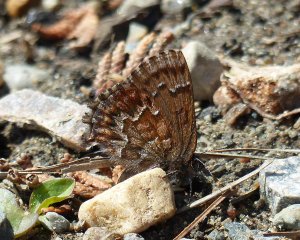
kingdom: Animalia
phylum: Arthropoda
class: Insecta
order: Lepidoptera
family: Lycaenidae
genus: Incisalia
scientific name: Incisalia niphon
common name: Eastern Pine Elfin
